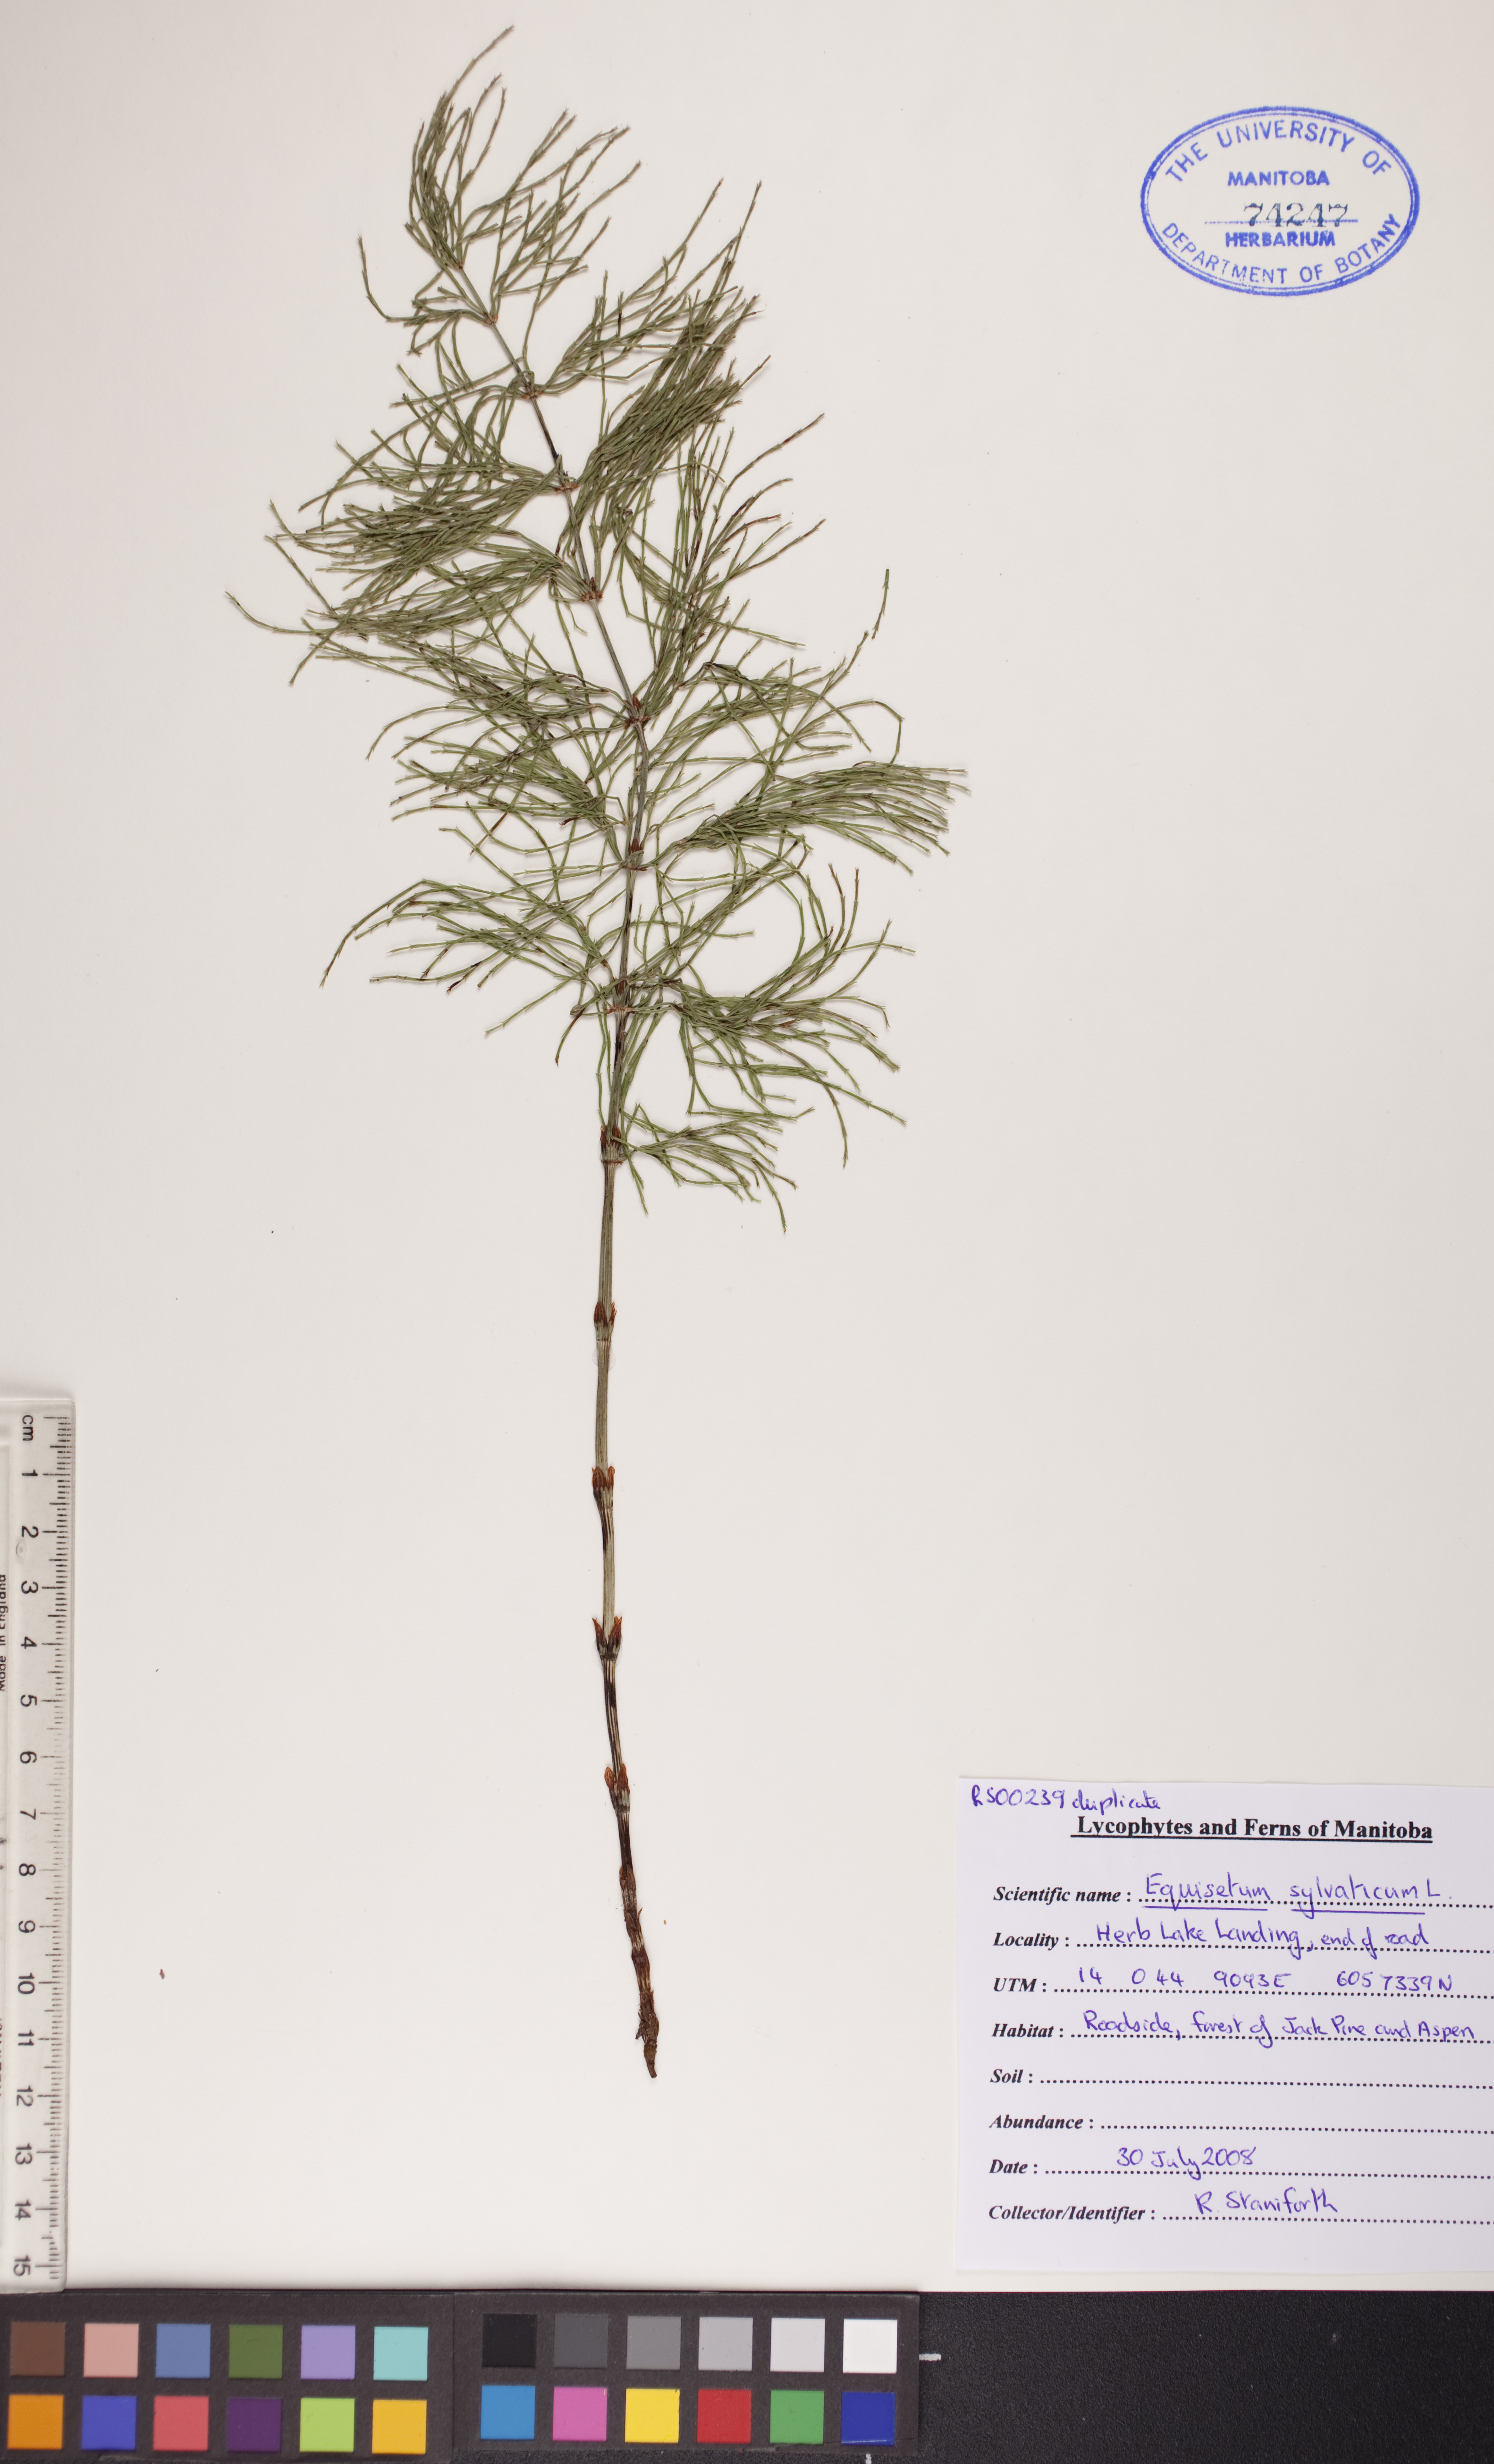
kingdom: Plantae
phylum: Tracheophyta
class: Polypodiopsida
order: Equisetales
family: Equisetaceae
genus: Equisetum
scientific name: Equisetum sylvaticum
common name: Wood horsetail
